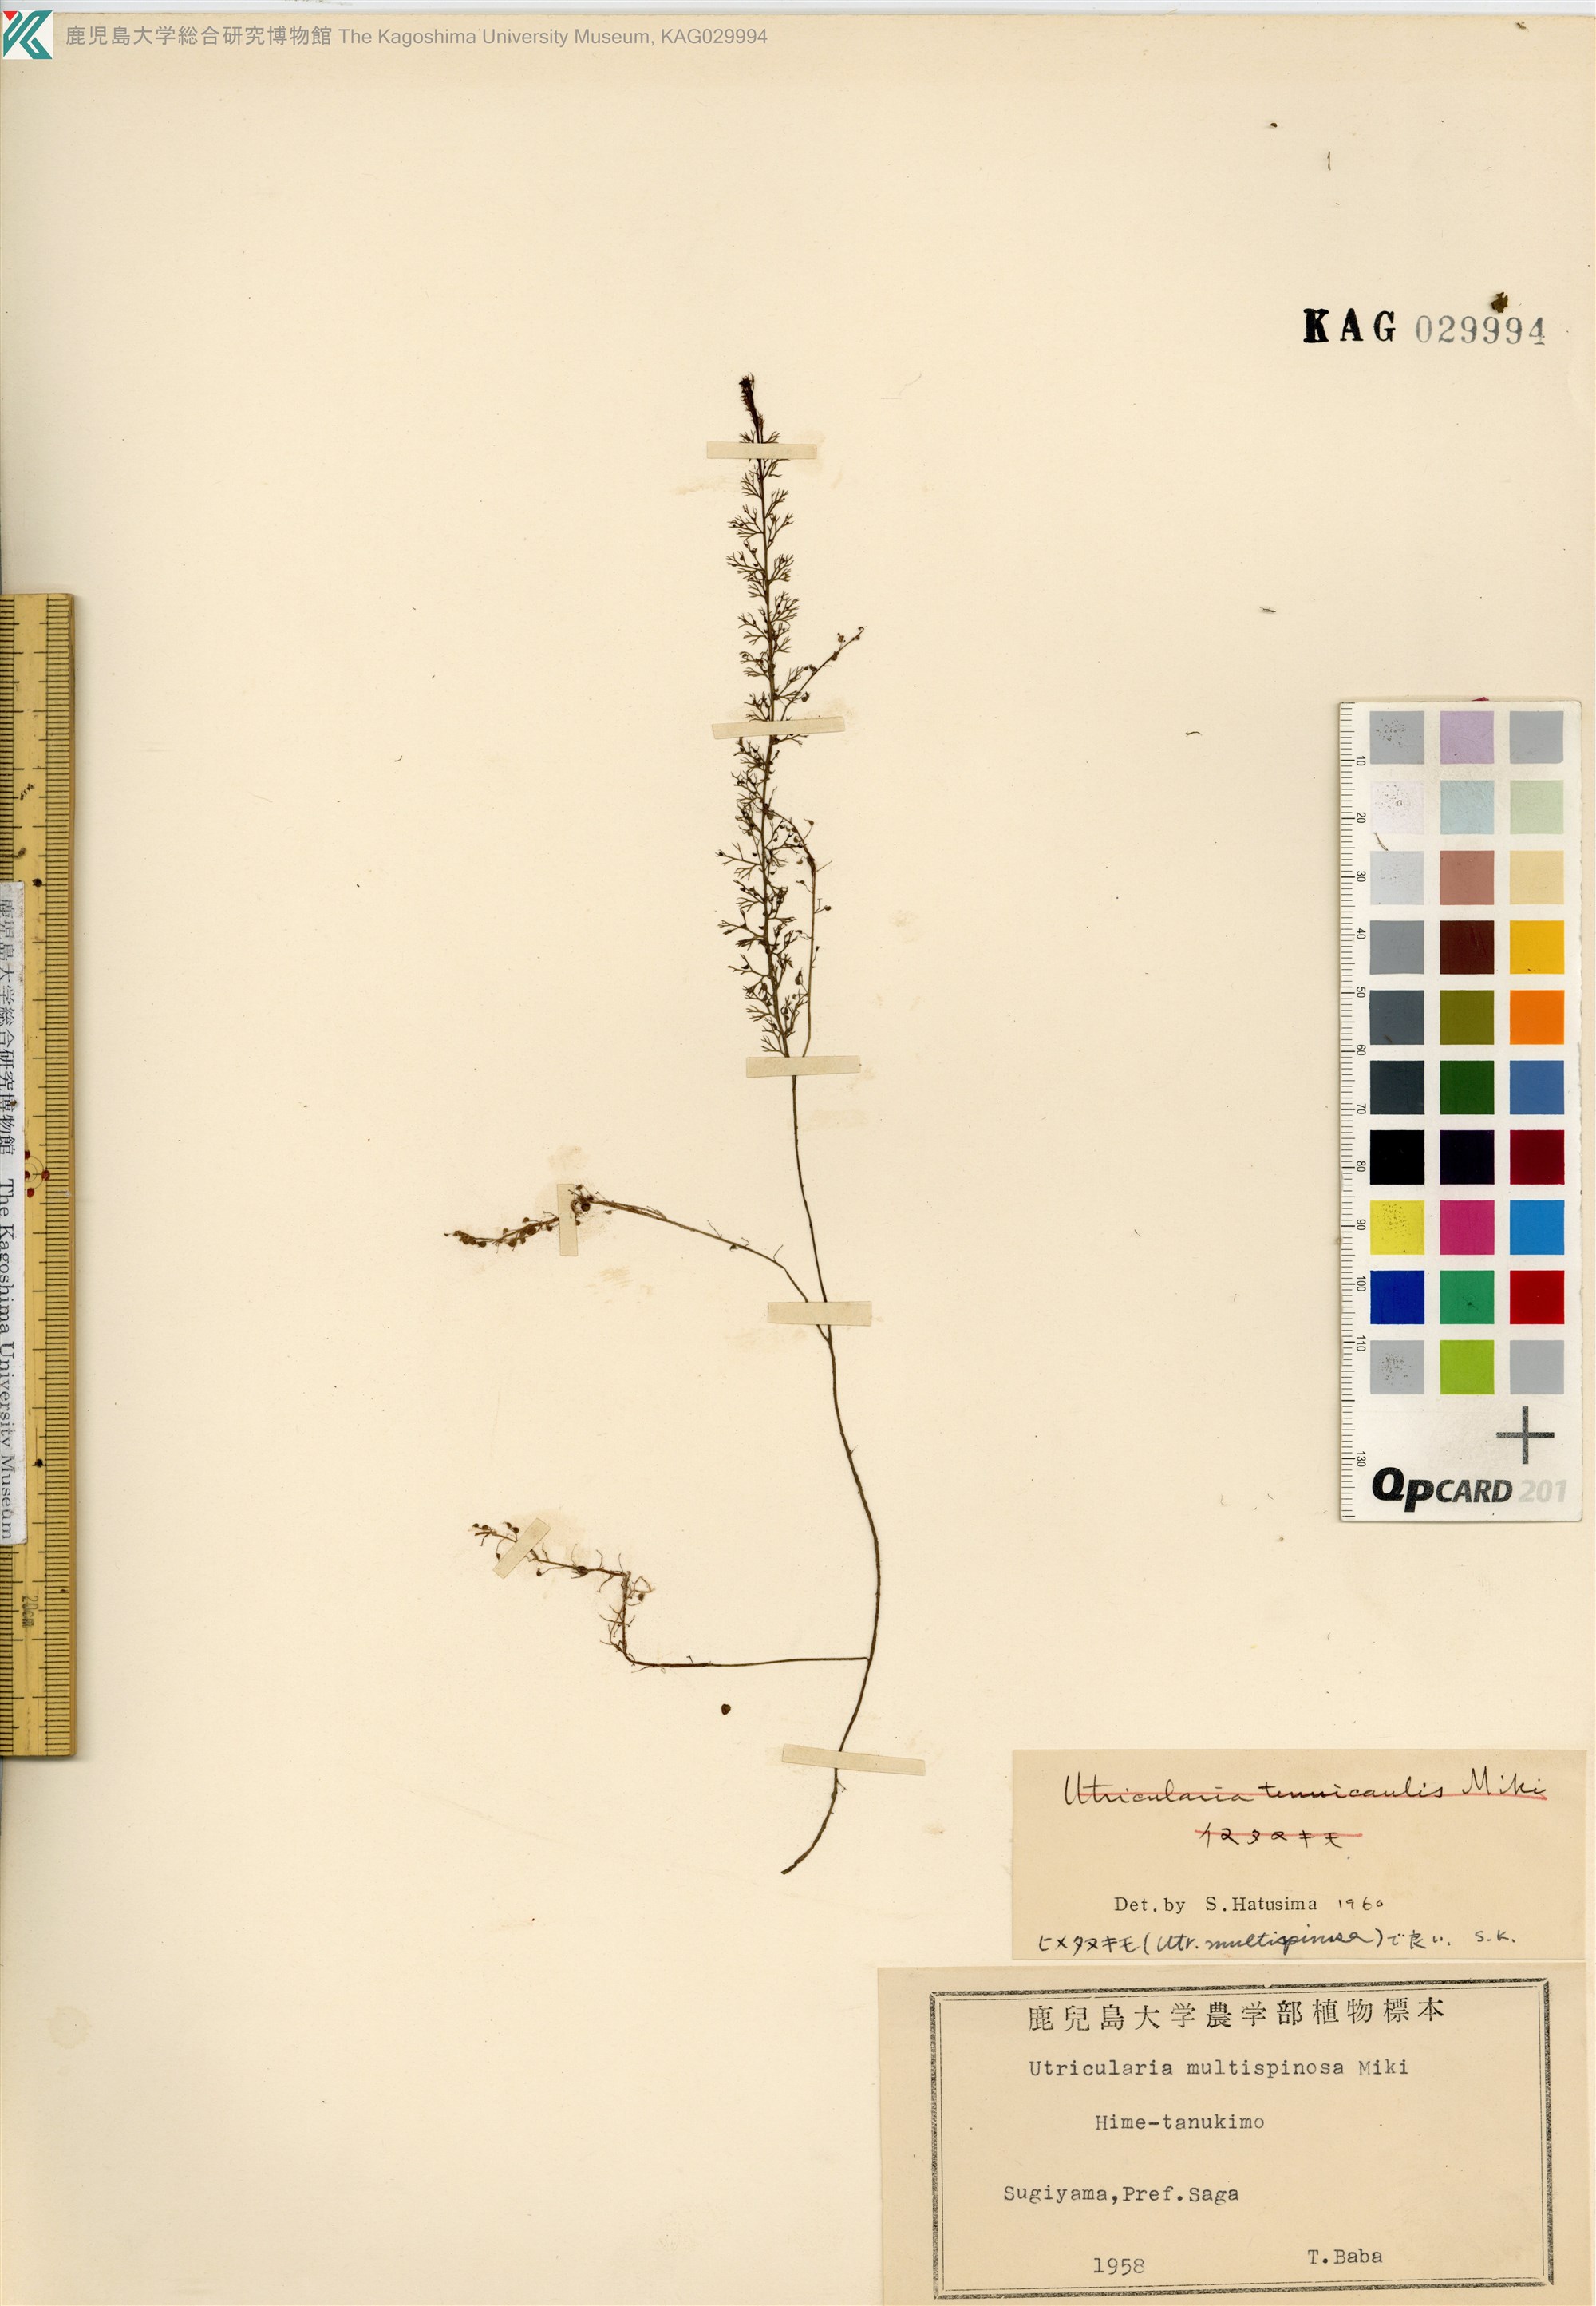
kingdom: Plantae
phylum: Tracheophyta
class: Magnoliopsida
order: Lamiales
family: Lentibulariaceae
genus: Utricularia
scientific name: Utricularia minor
